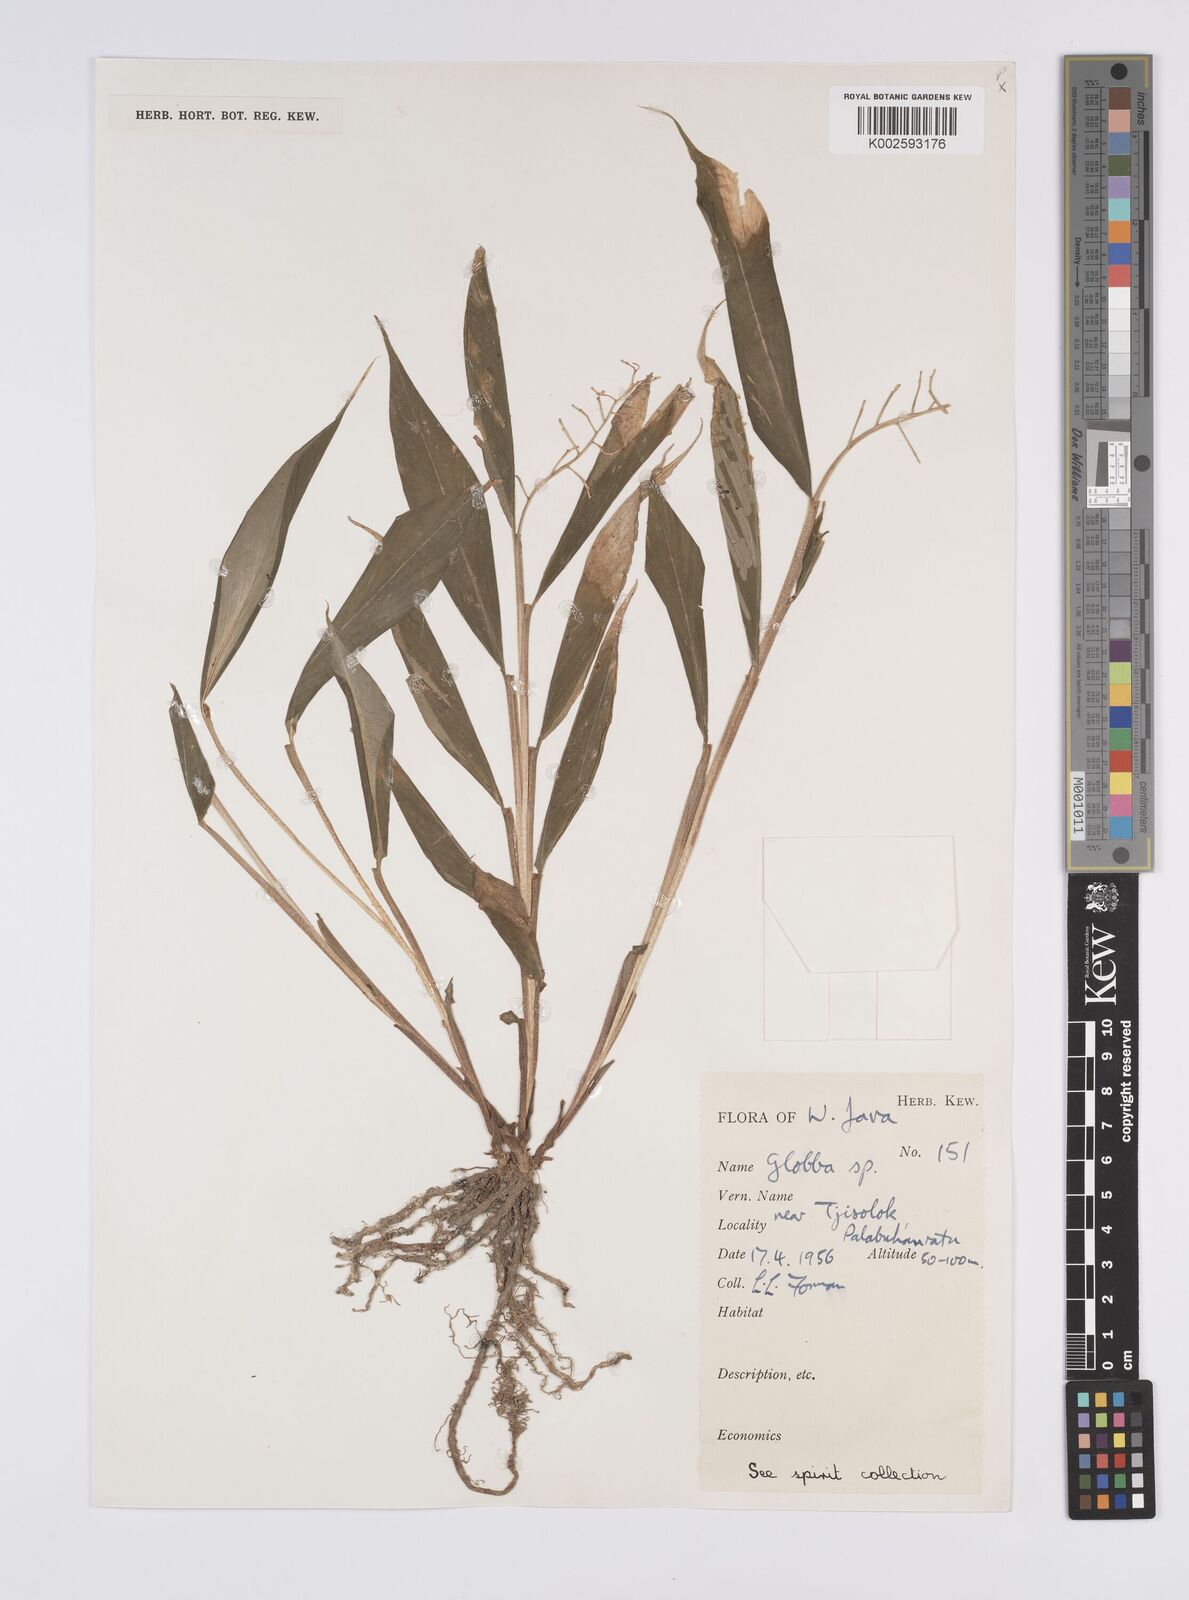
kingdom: Plantae
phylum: Tracheophyta
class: Liliopsida
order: Zingiberales
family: Zingiberaceae
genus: Globba
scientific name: Globba
